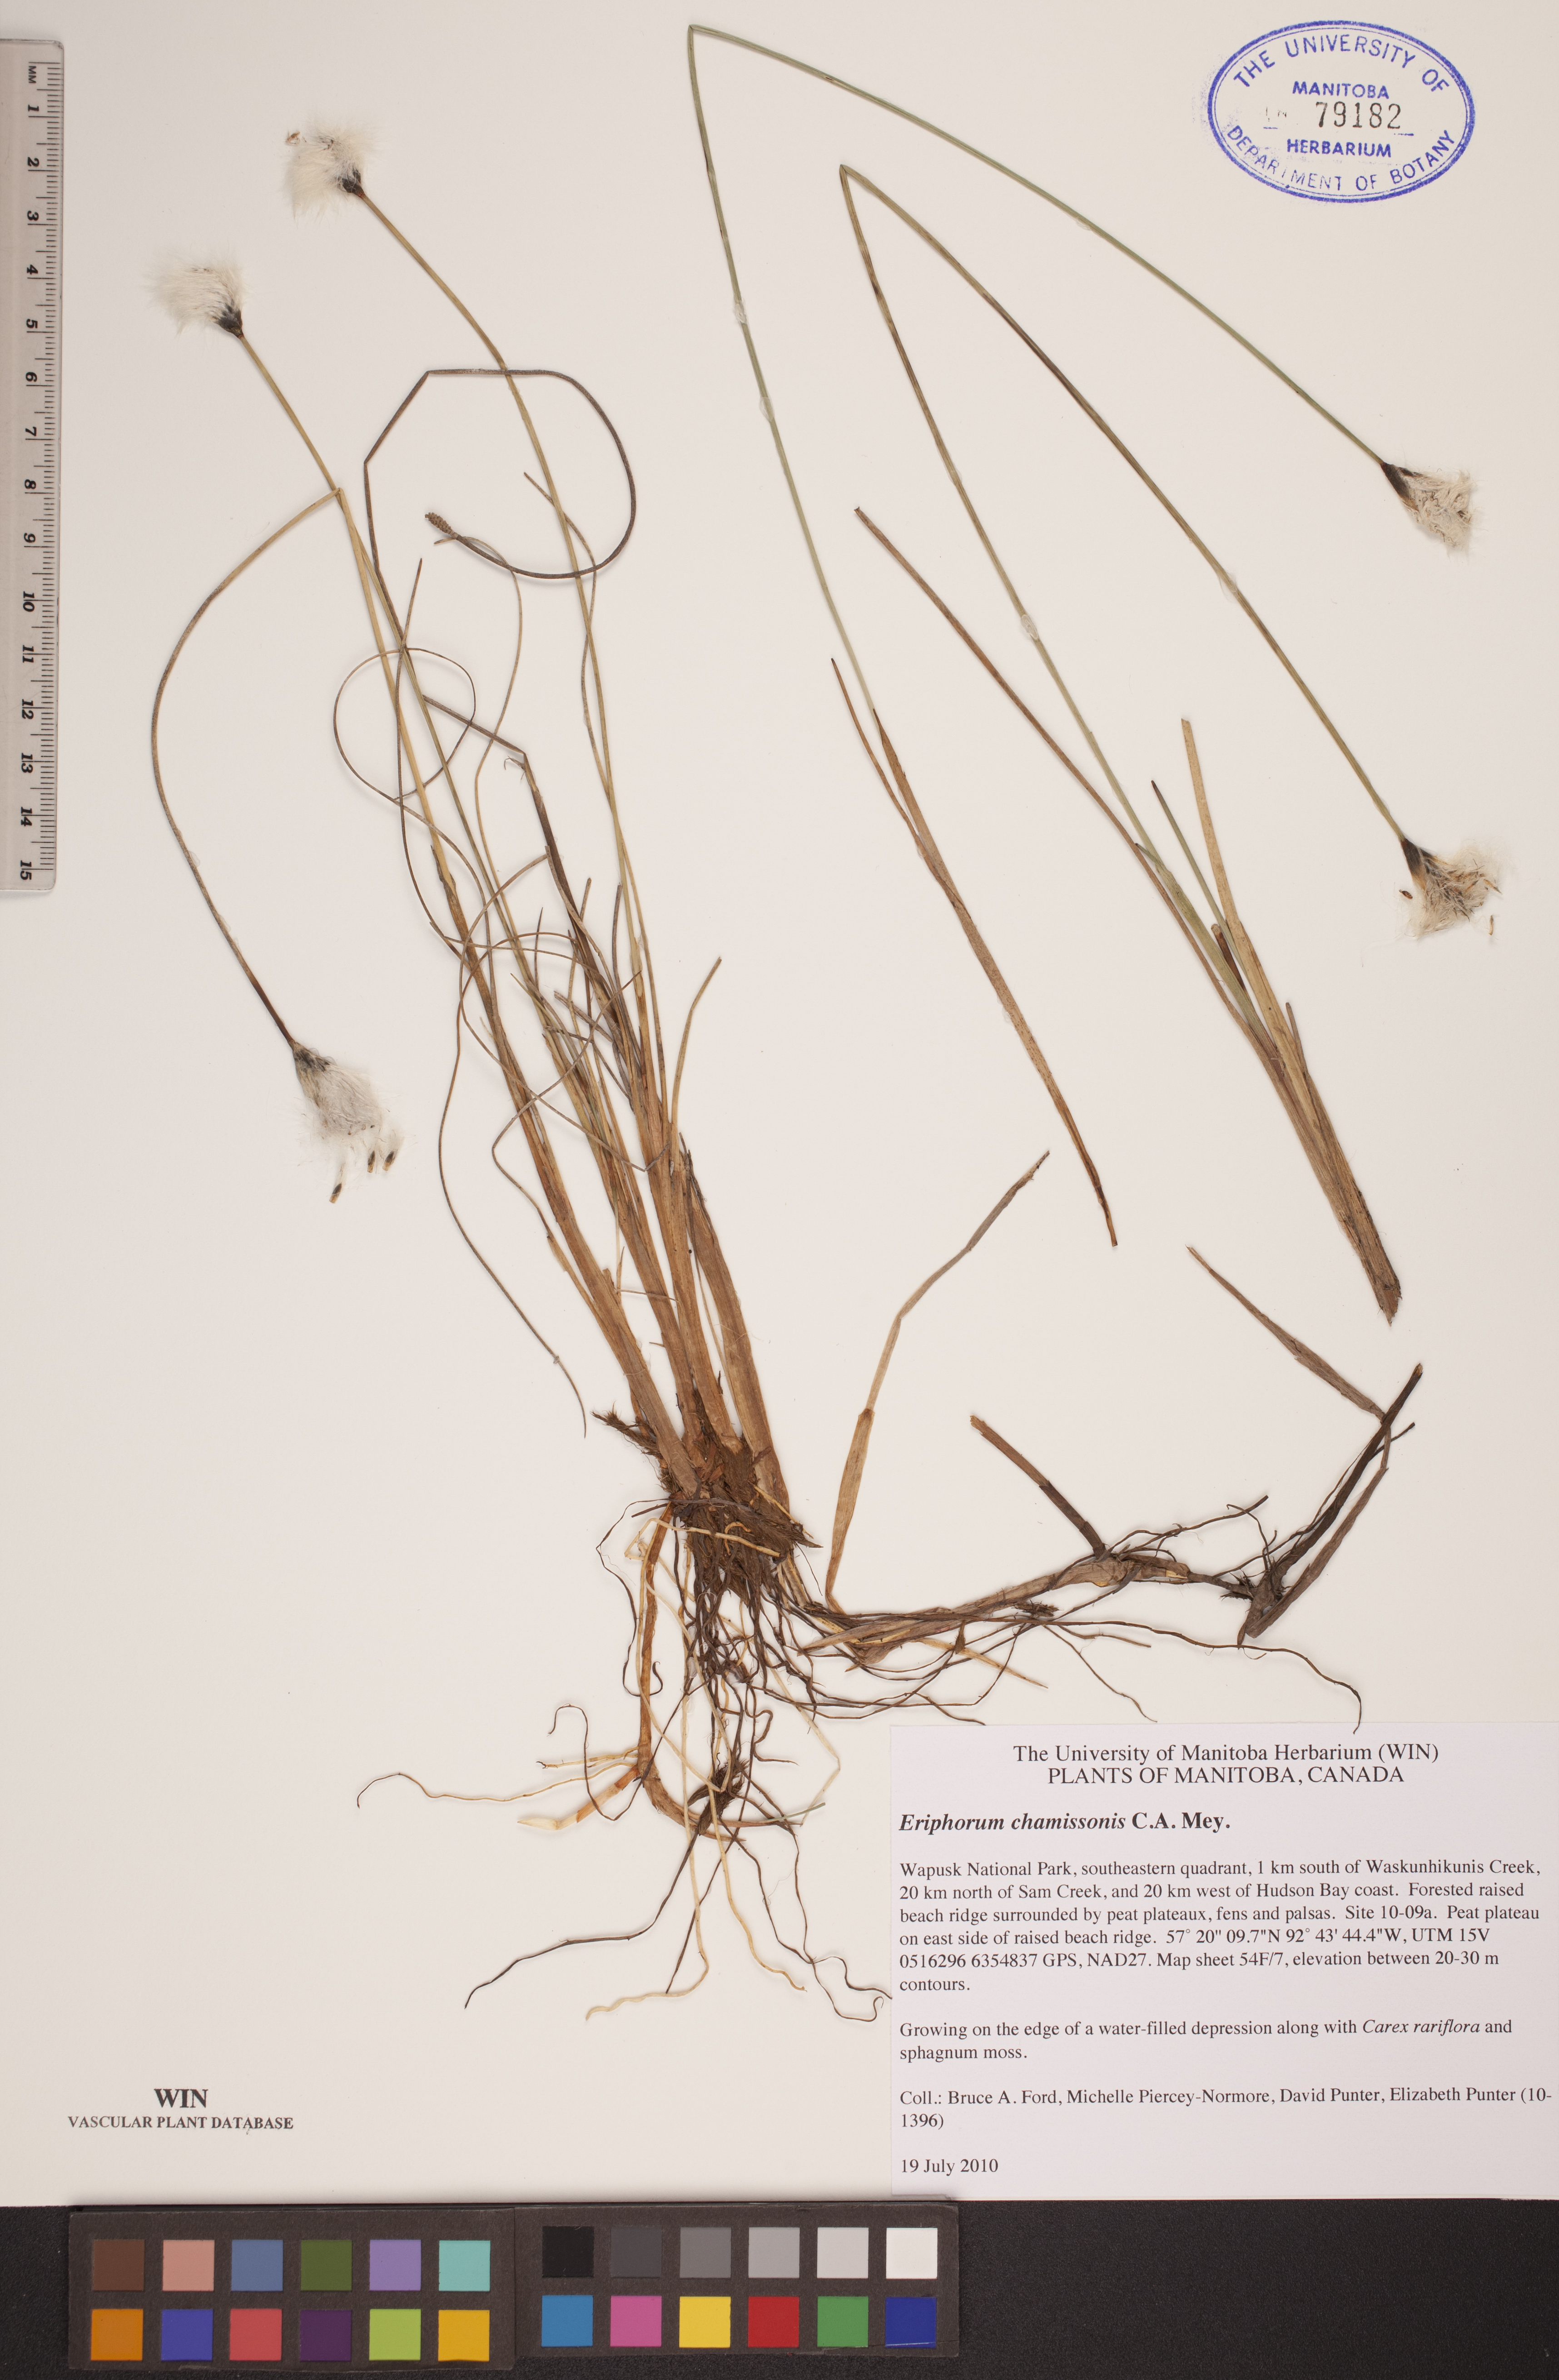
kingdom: Plantae
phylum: Tracheophyta
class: Liliopsida
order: Poales
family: Cyperaceae
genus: Eriophorum
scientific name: Eriophorum chamissonis
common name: Chamisso's cottongrass
